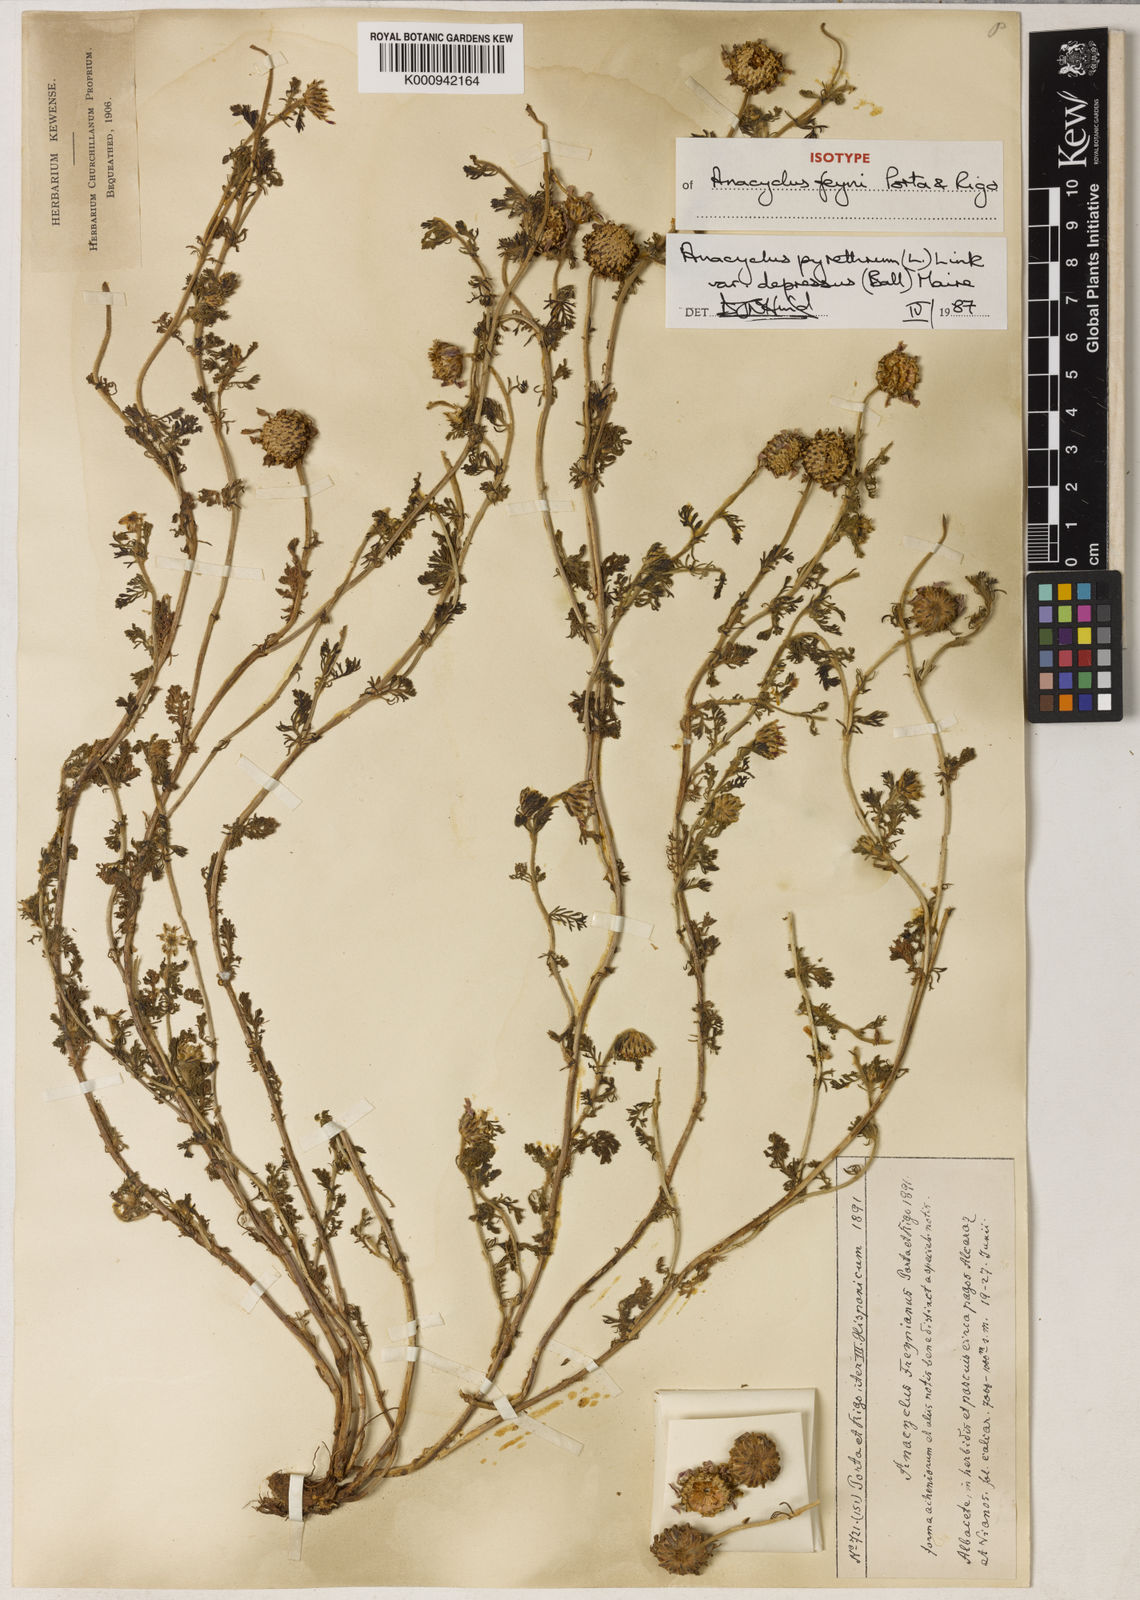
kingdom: Plantae
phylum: Tracheophyta
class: Magnoliopsida
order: Asterales
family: Asteraceae
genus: Anacyclus
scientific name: Anacyclus pyrethrum
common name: Mt. atlas daisy
